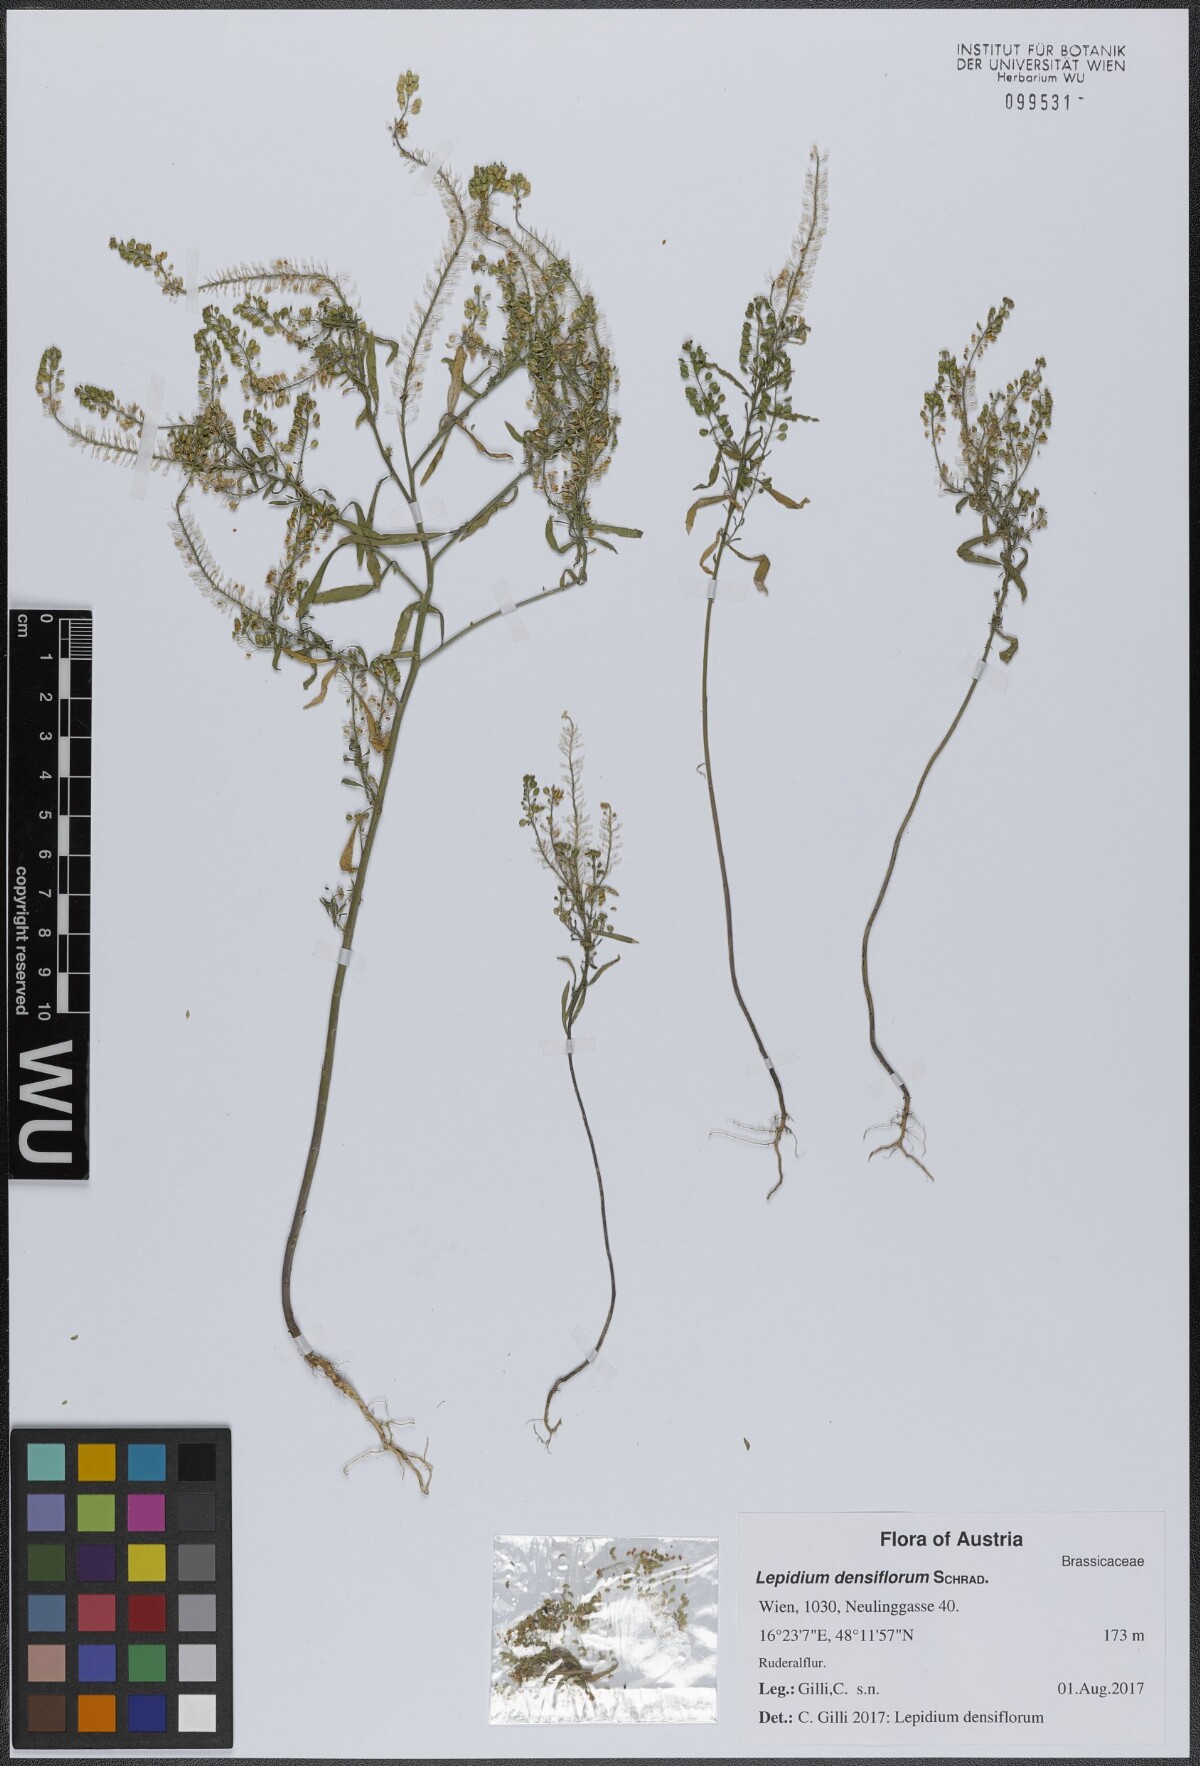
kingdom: Plantae
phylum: Tracheophyta
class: Magnoliopsida
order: Brassicales
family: Brassicaceae
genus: Lepidium
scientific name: Lepidium densiflorum
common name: Miner's pepperwort
